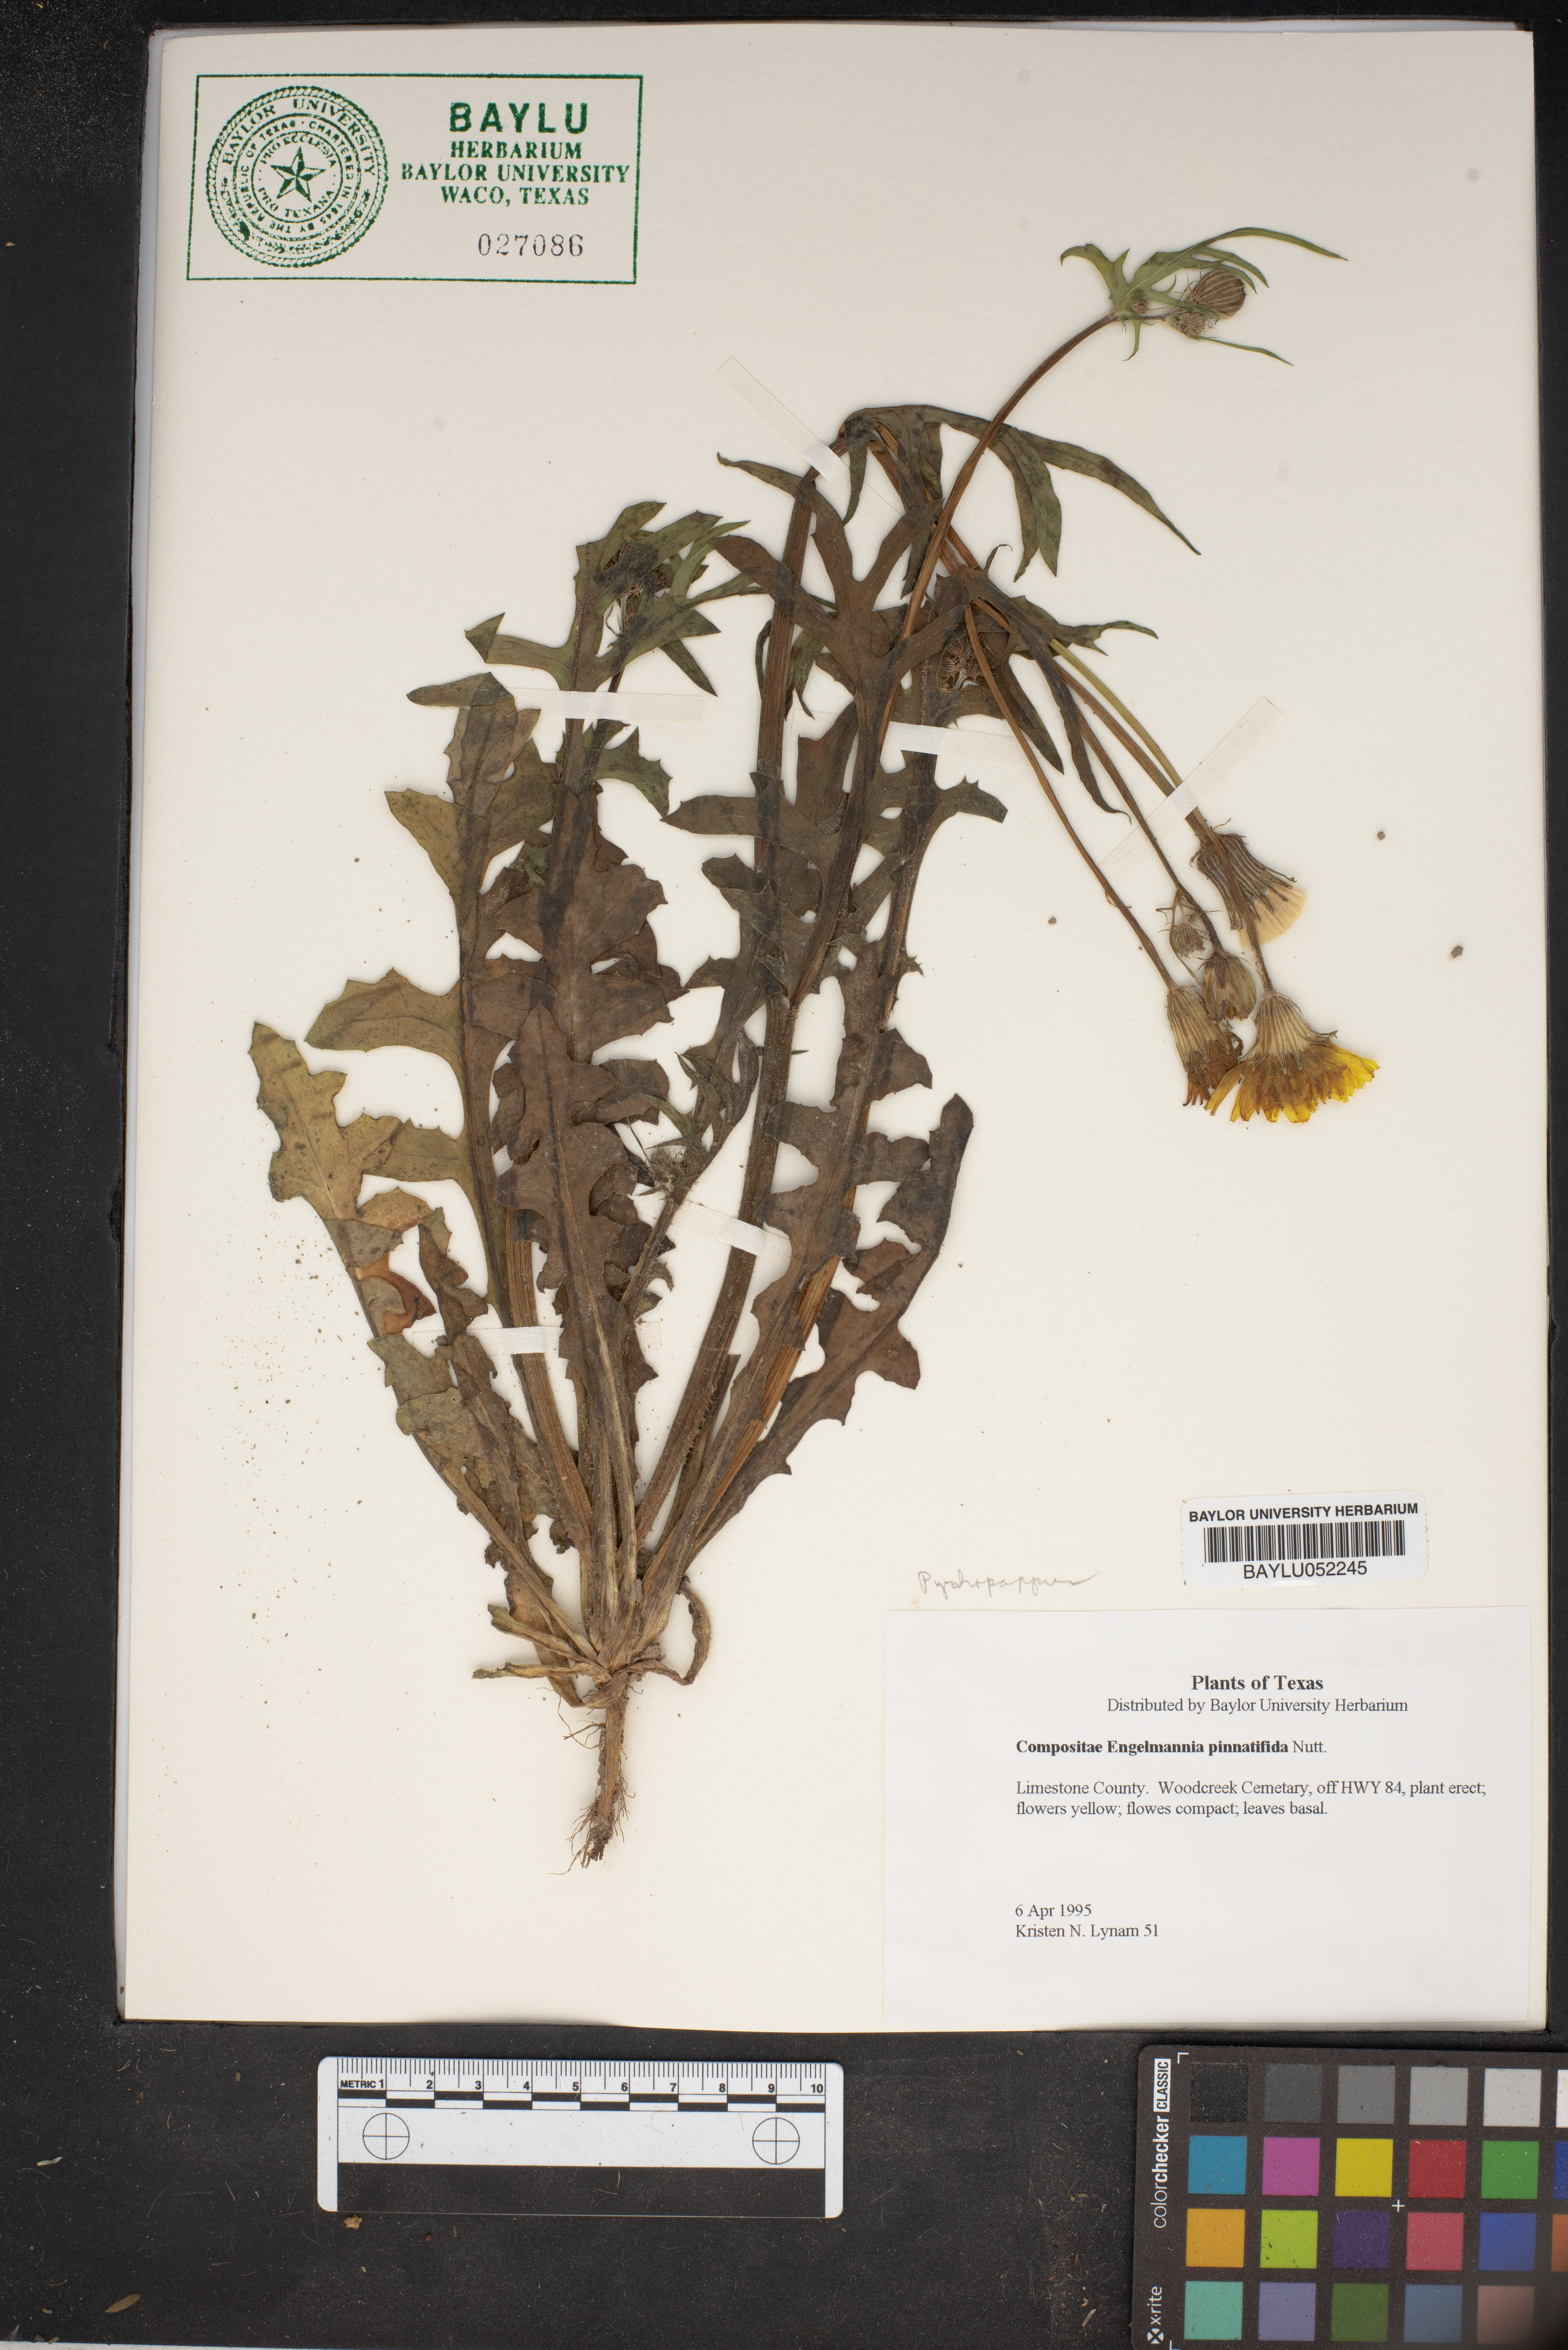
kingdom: Plantae
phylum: Tracheophyta
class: Magnoliopsida
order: Asterales
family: Asteraceae
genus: Engelmannia
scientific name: Engelmannia peristenia
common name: Engelmann's daisy
